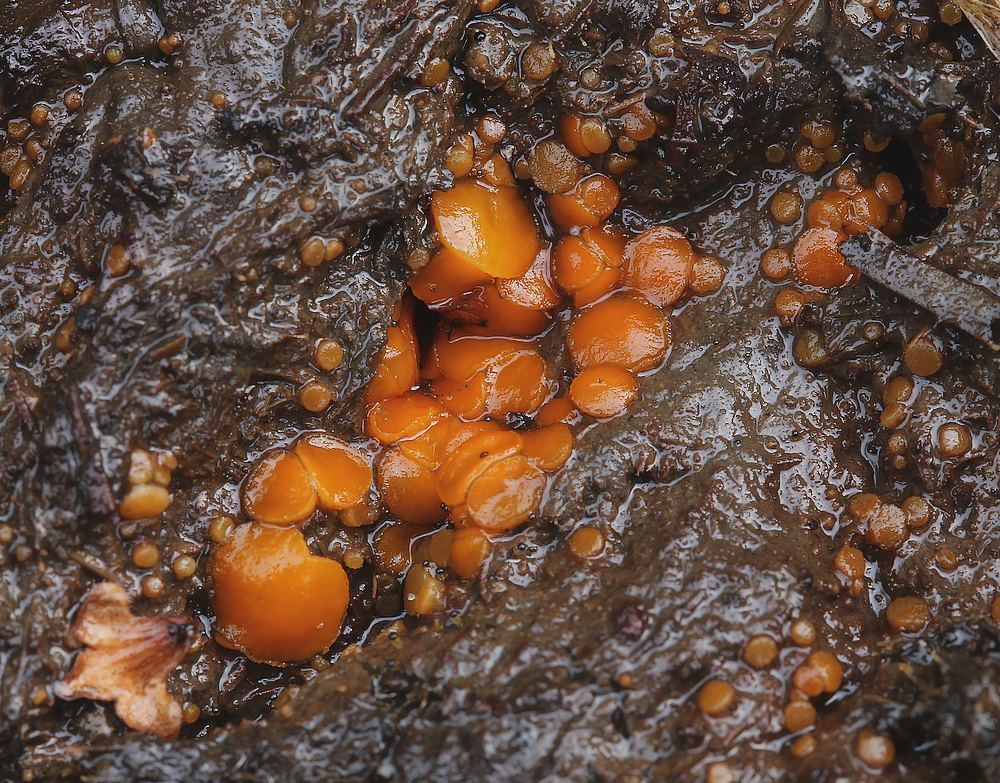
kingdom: Fungi
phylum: Ascomycota
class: Pezizomycetes
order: Pezizales
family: Pyronemataceae
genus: Cheilymenia
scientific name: Cheilymenia granulata
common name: møgbæger
